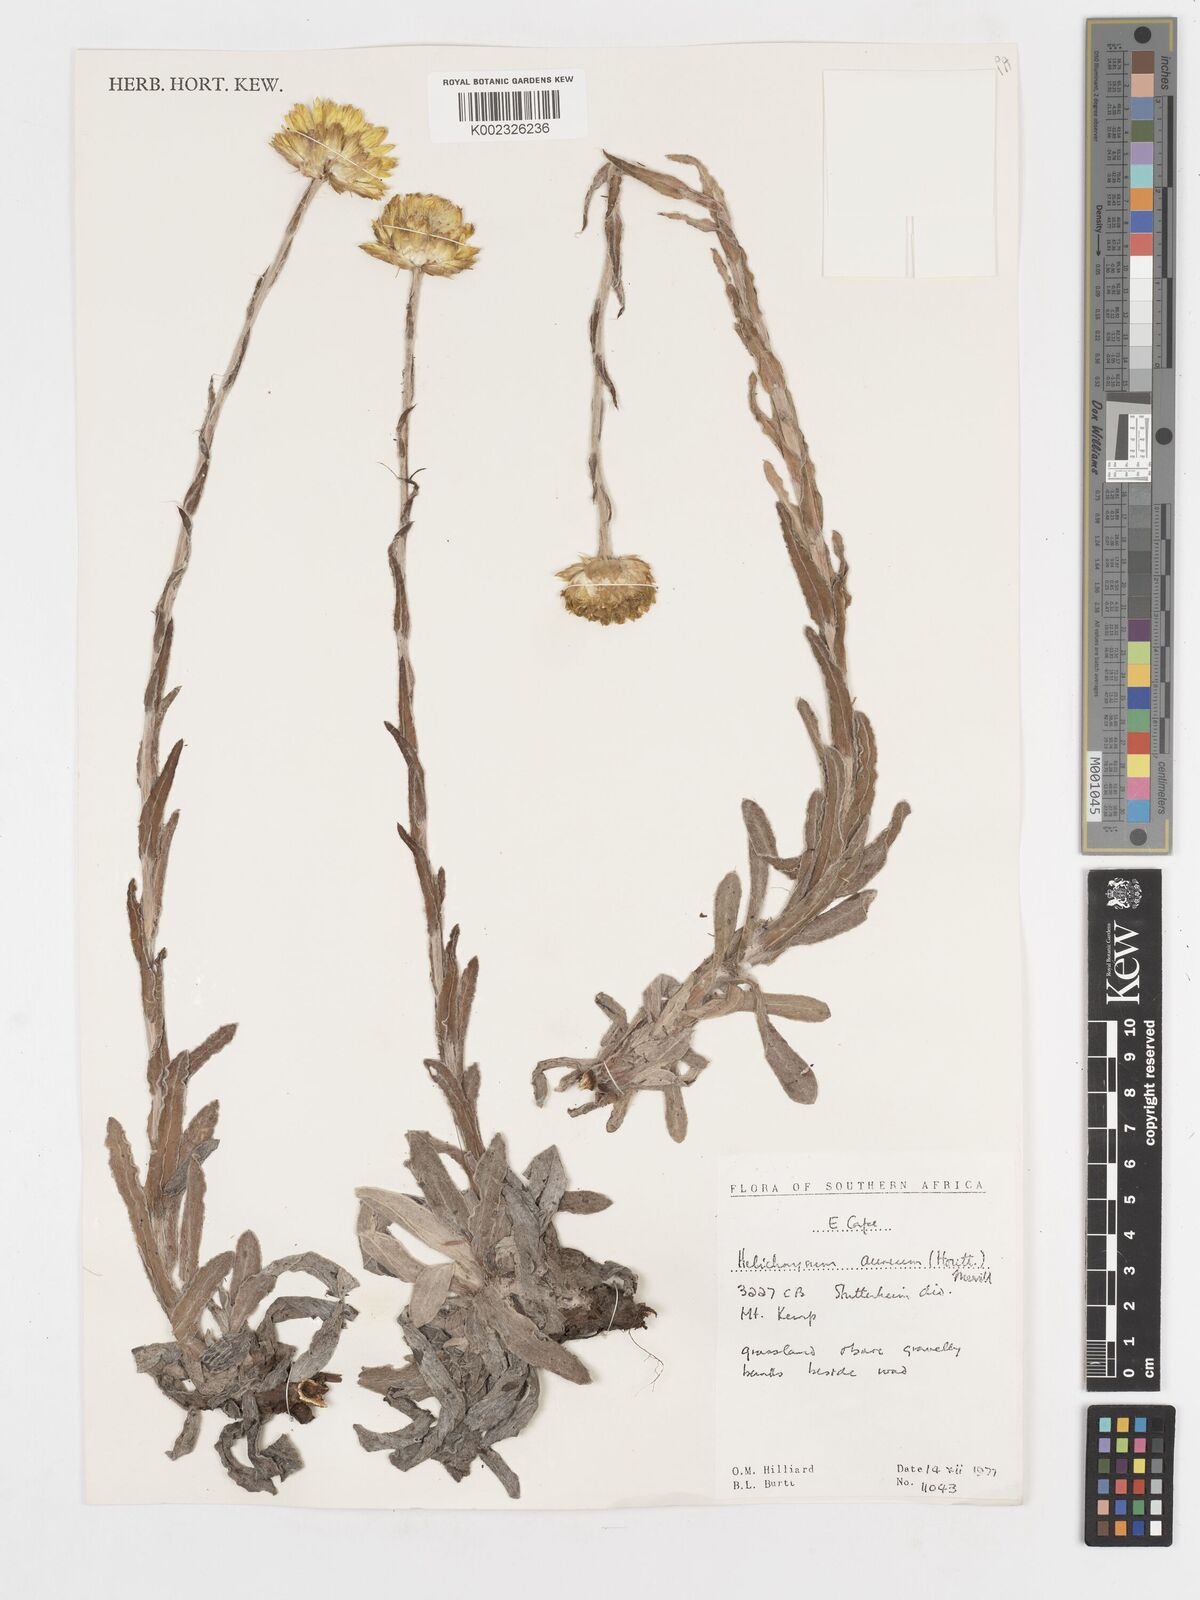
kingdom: Plantae
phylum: Tracheophyta
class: Magnoliopsida
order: Asterales
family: Asteraceae
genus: Helichrysum
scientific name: Helichrysum aureum
